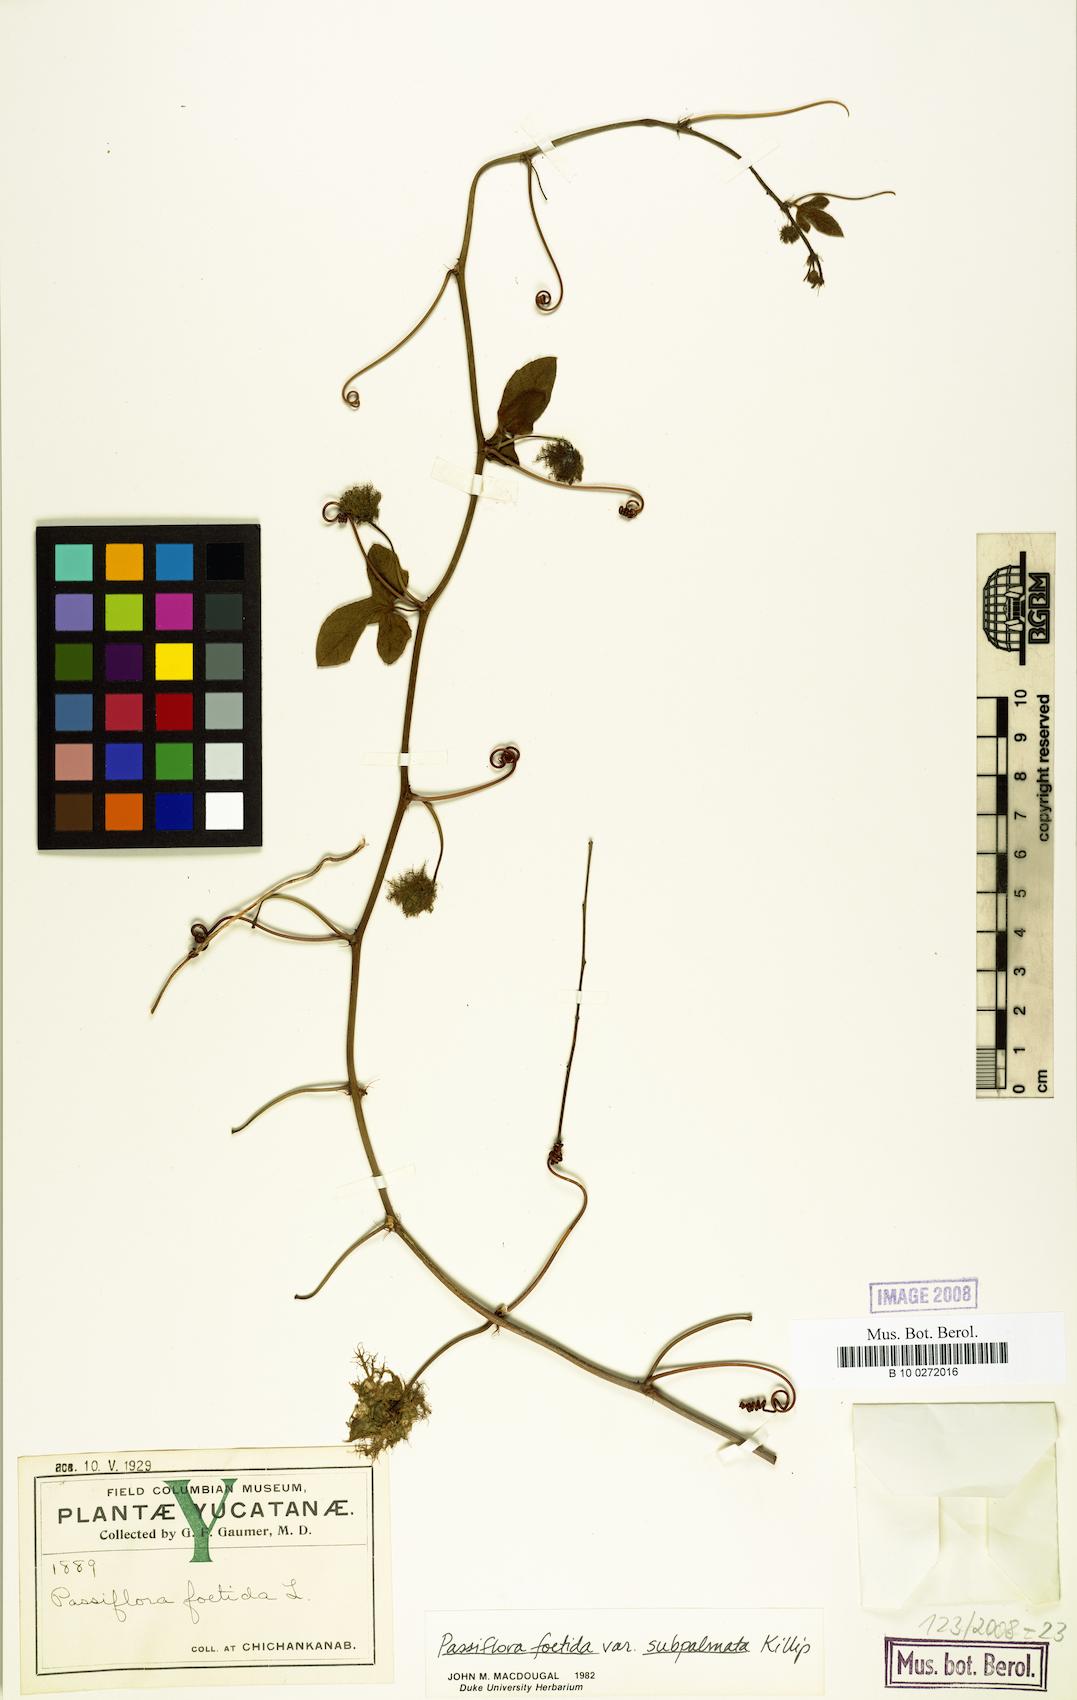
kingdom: Plantae
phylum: Tracheophyta
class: Magnoliopsida
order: Malpighiales
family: Passifloraceae
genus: Passiflora
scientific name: Passiflora ciliata
